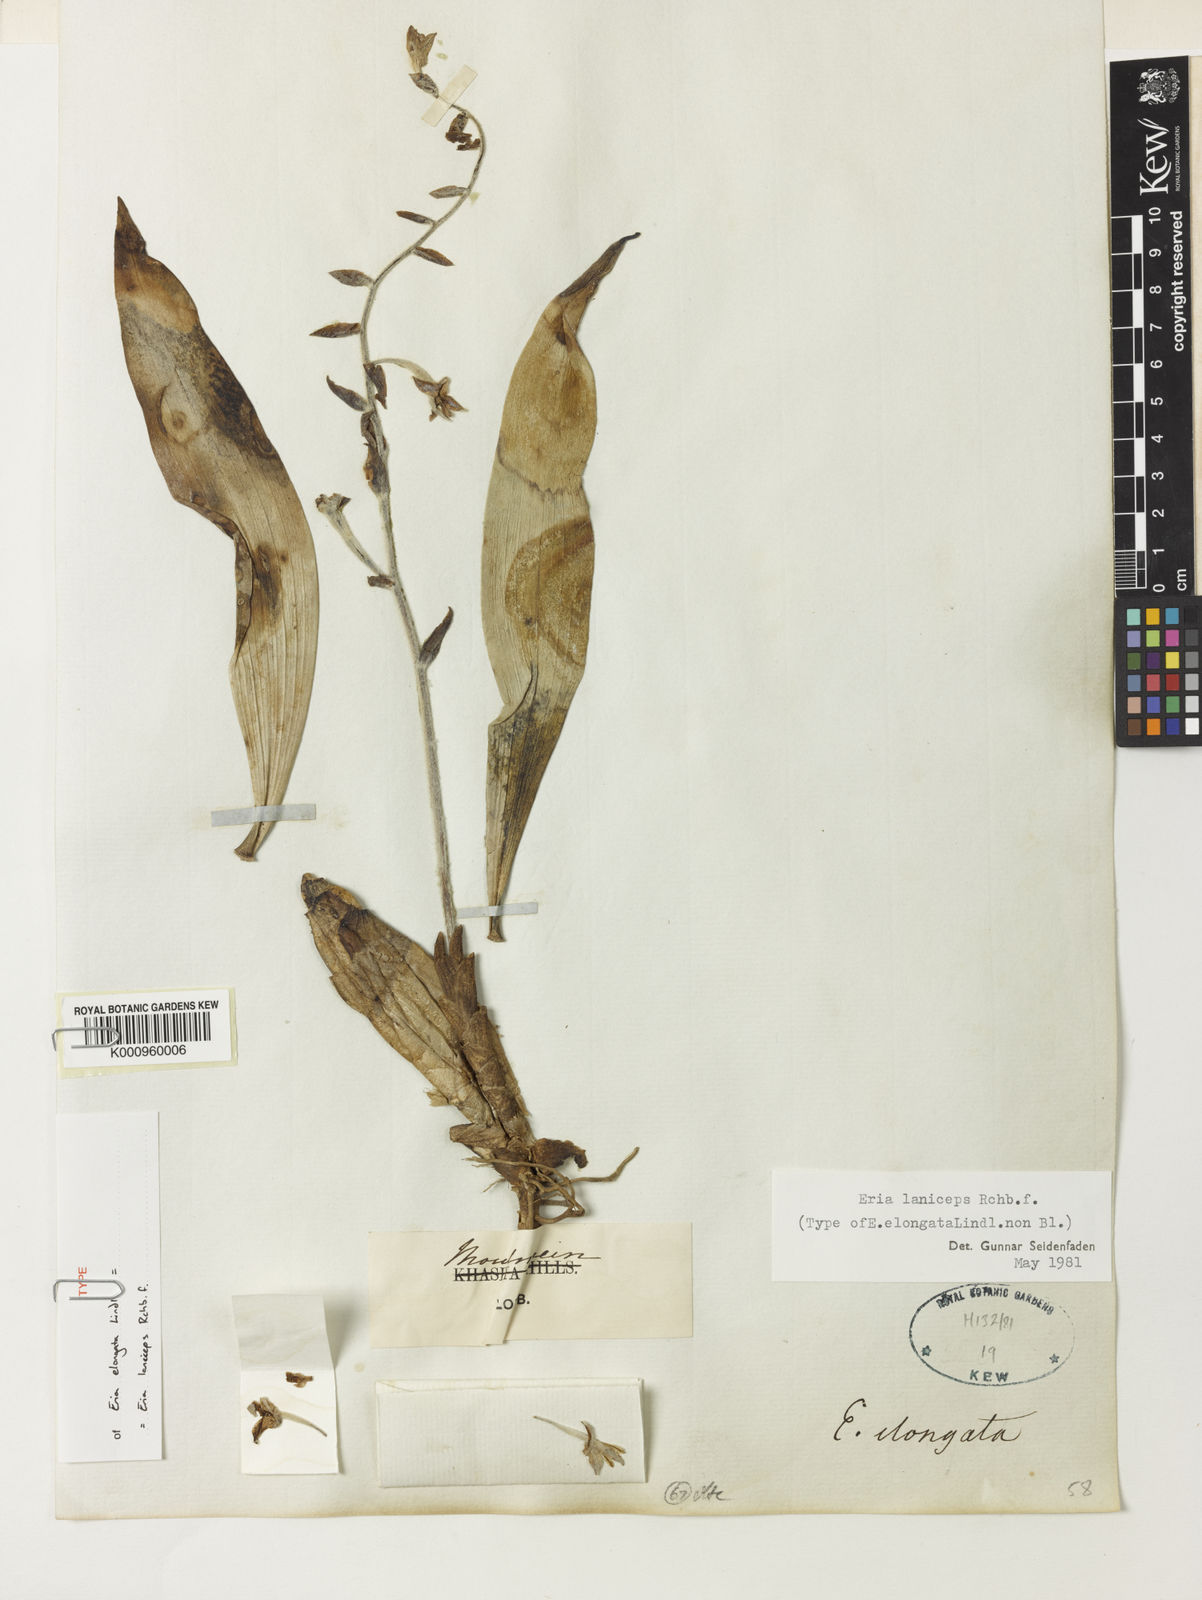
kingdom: Plantae
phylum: Tracheophyta
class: Liliopsida
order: Asparagales
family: Orchidaceae
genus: Dendrolirium
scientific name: Dendrolirium laniceps
